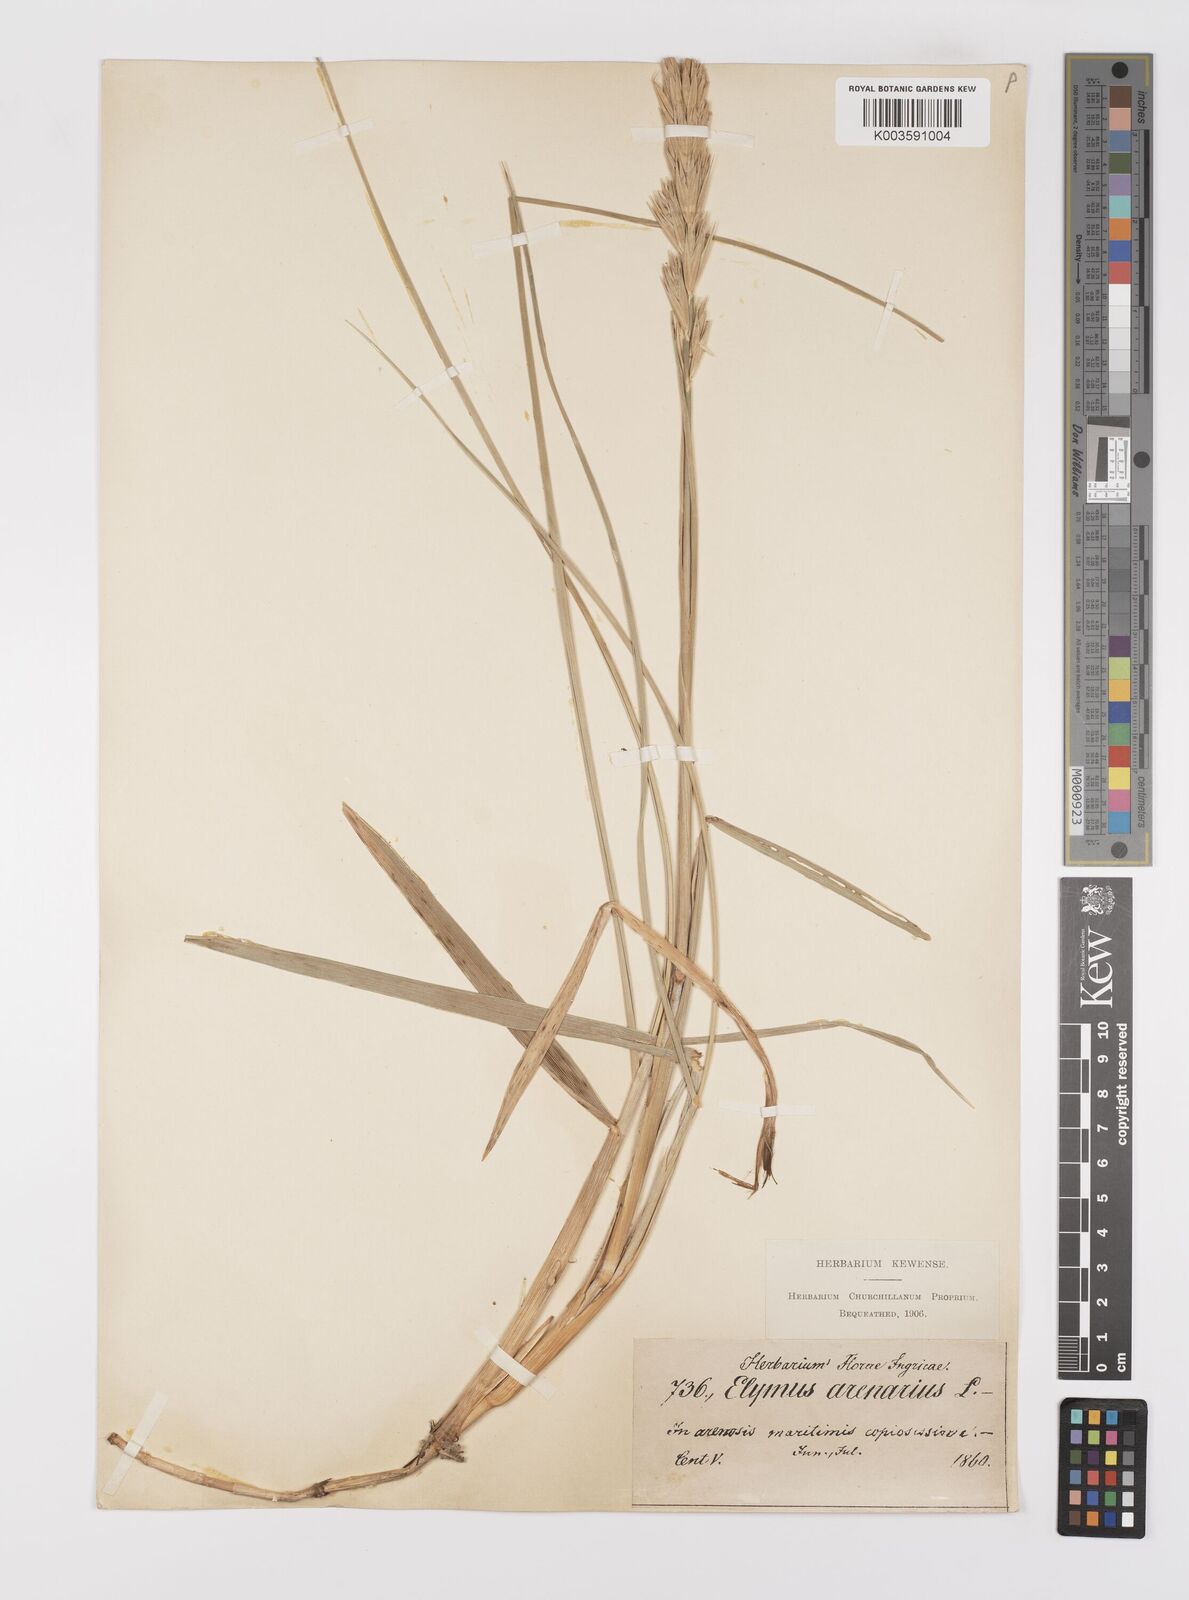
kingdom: Plantae
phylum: Tracheophyta
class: Liliopsida
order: Poales
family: Poaceae
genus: Leymus
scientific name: Leymus arenarius
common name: Lyme-grass
